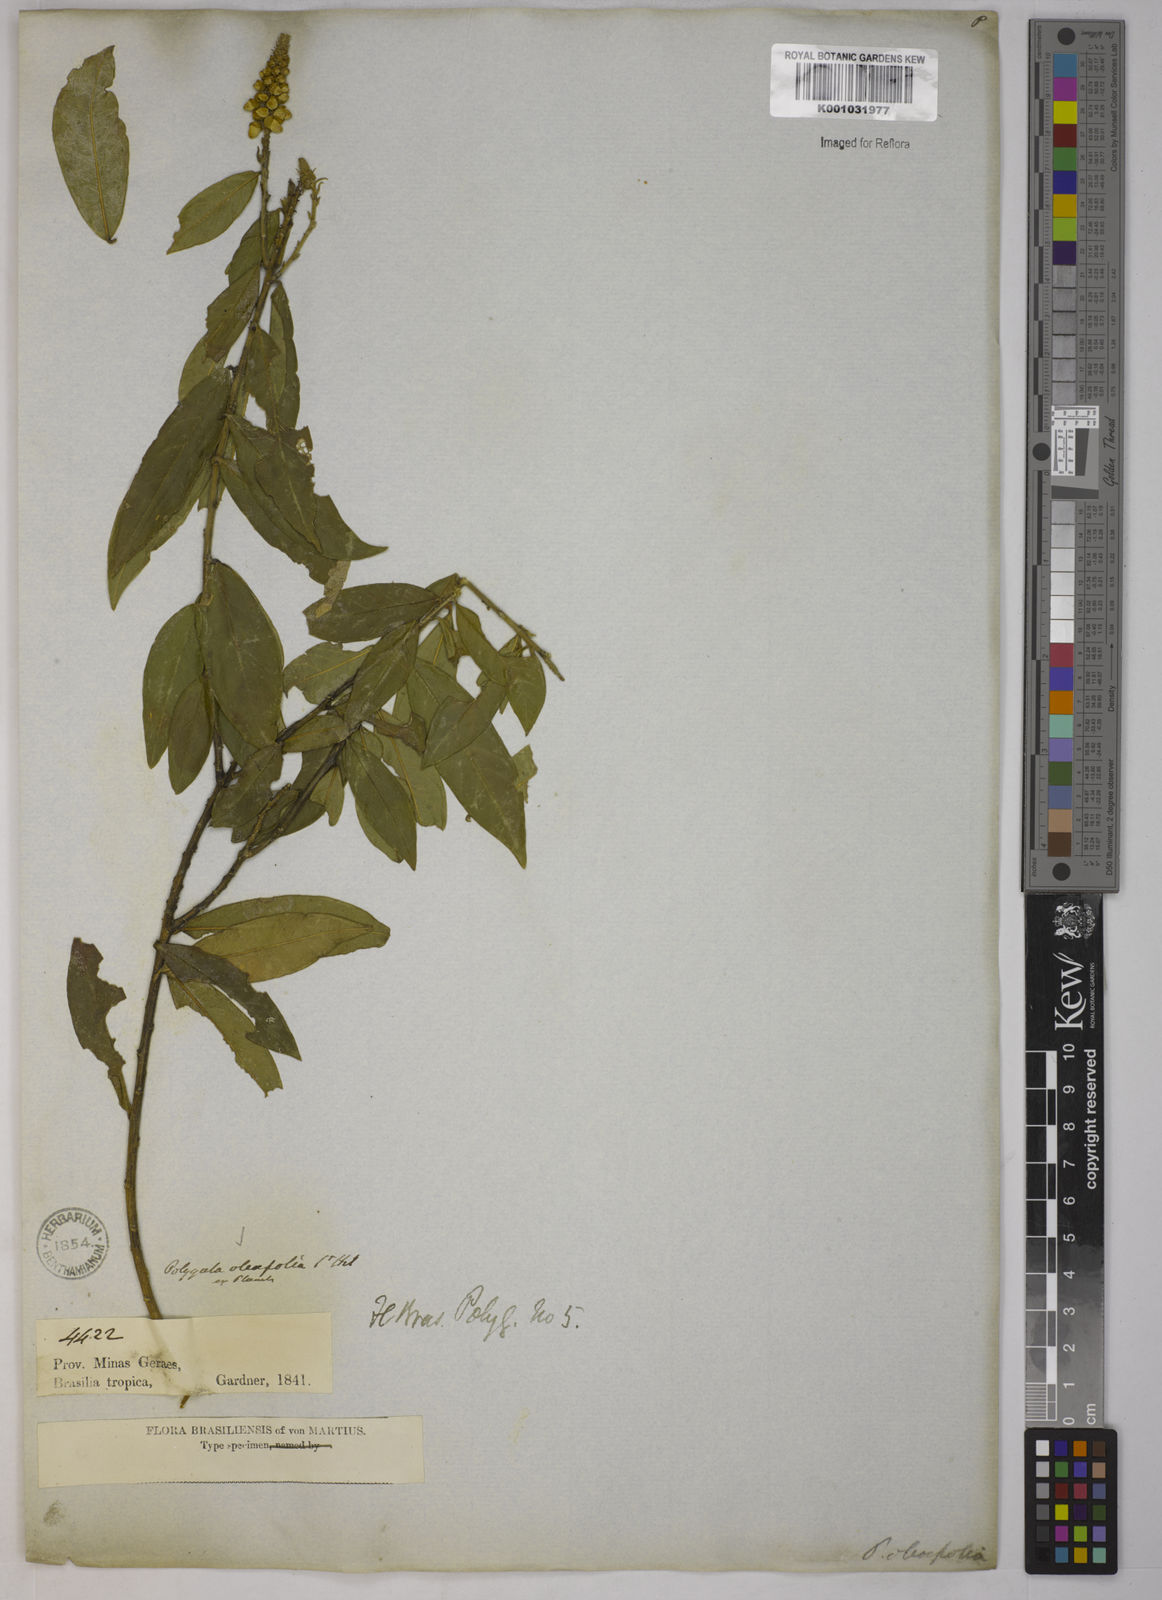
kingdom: Plantae
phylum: Tracheophyta
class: Magnoliopsida
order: Fabales
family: Polygalaceae
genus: Caamembeca
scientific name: Caamembeca oleifolia
